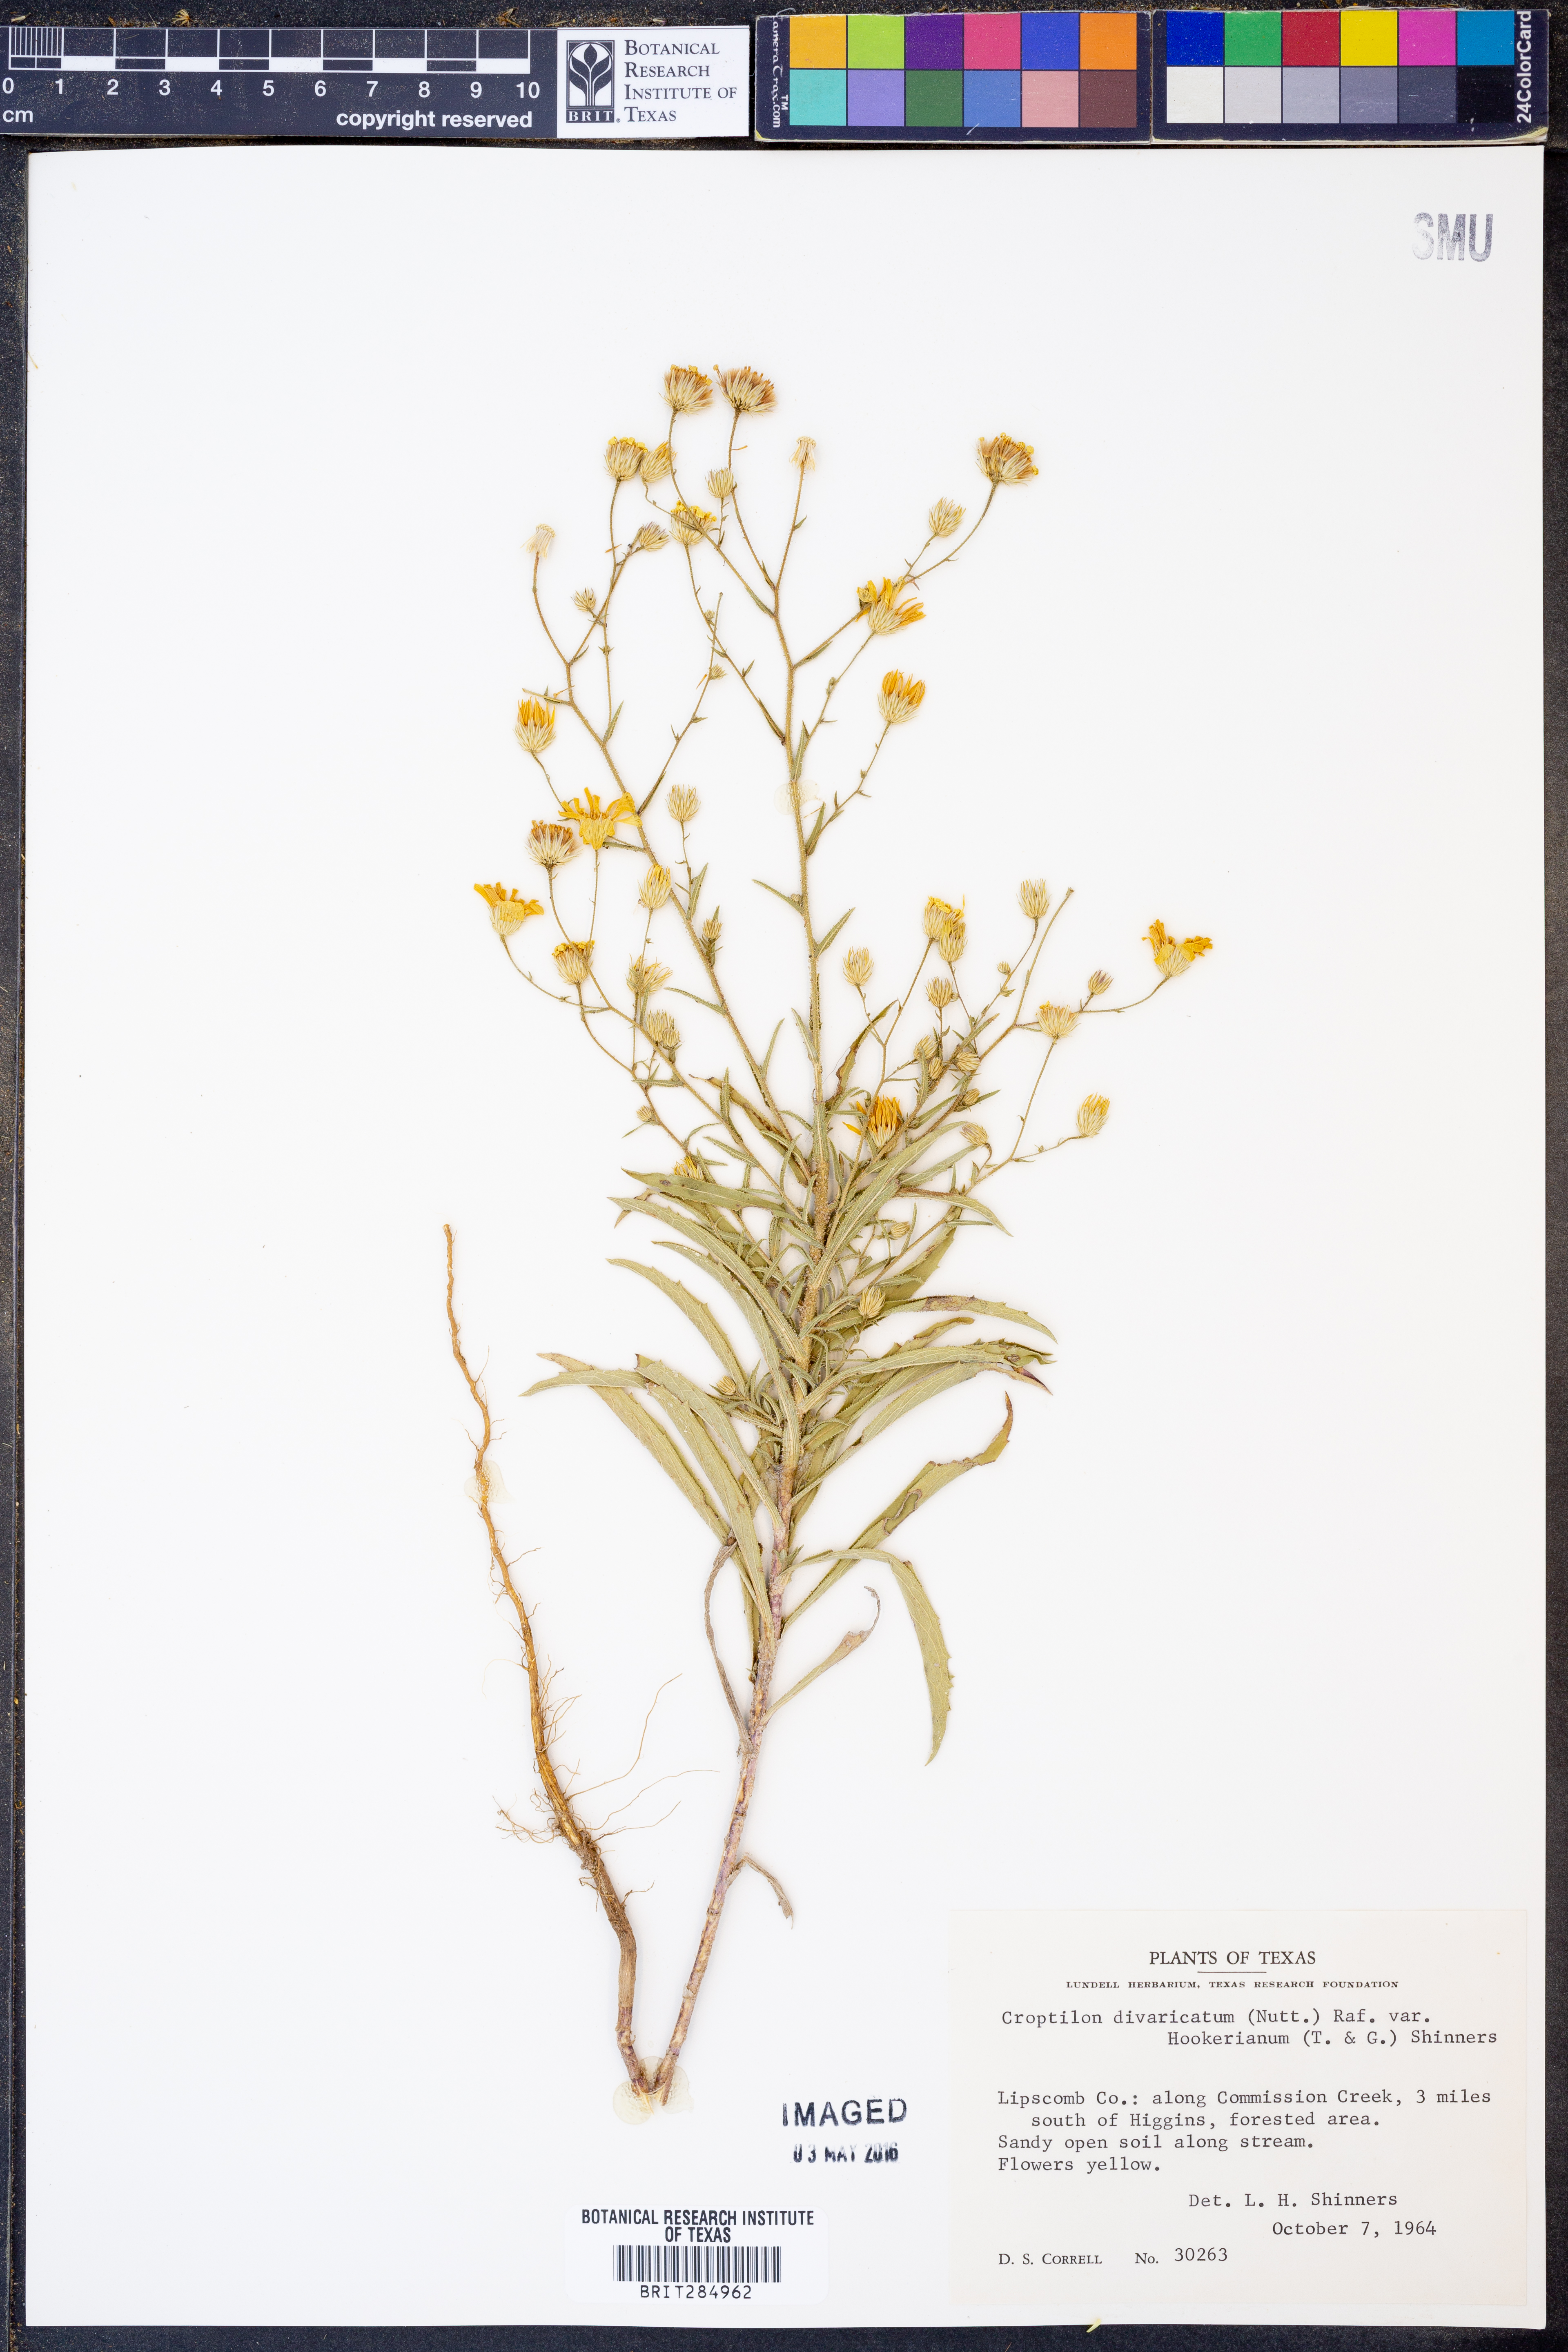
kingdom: Plantae
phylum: Tracheophyta
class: Magnoliopsida
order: Asterales
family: Asteraceae
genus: Croptilon
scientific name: Croptilon hookerianum
